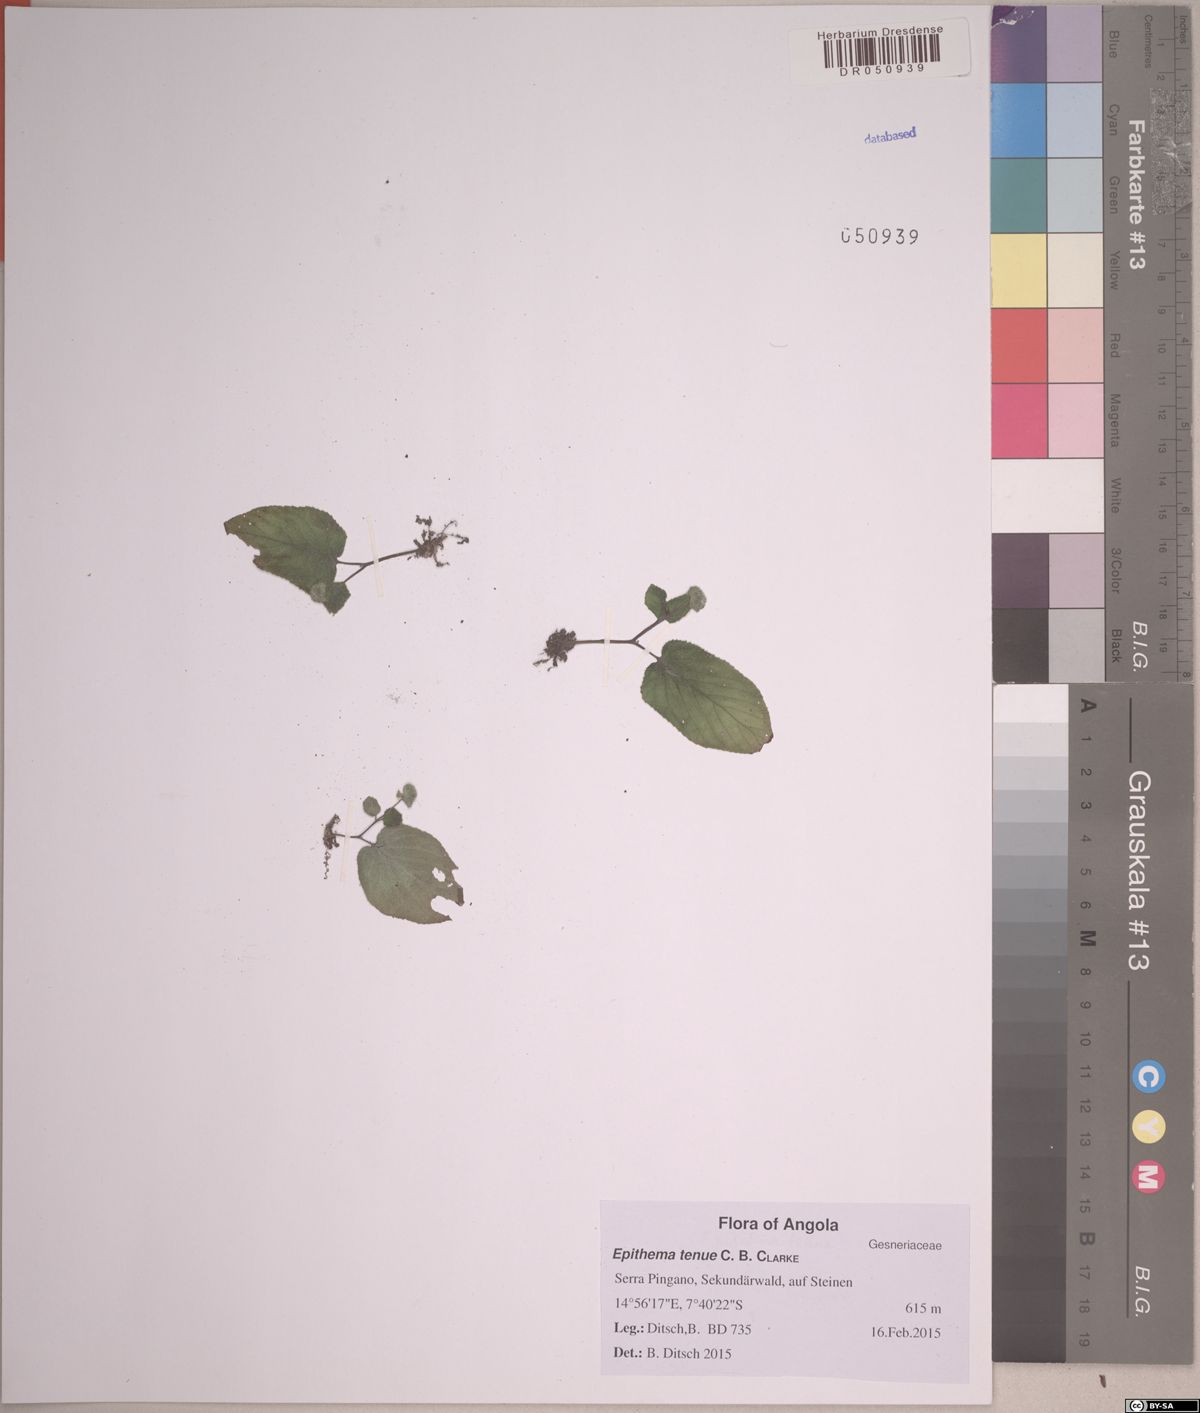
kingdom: Plantae
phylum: Tracheophyta
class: Magnoliopsida
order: Lamiales
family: Gesneriaceae
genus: Epithema
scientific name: Epithema tenue
